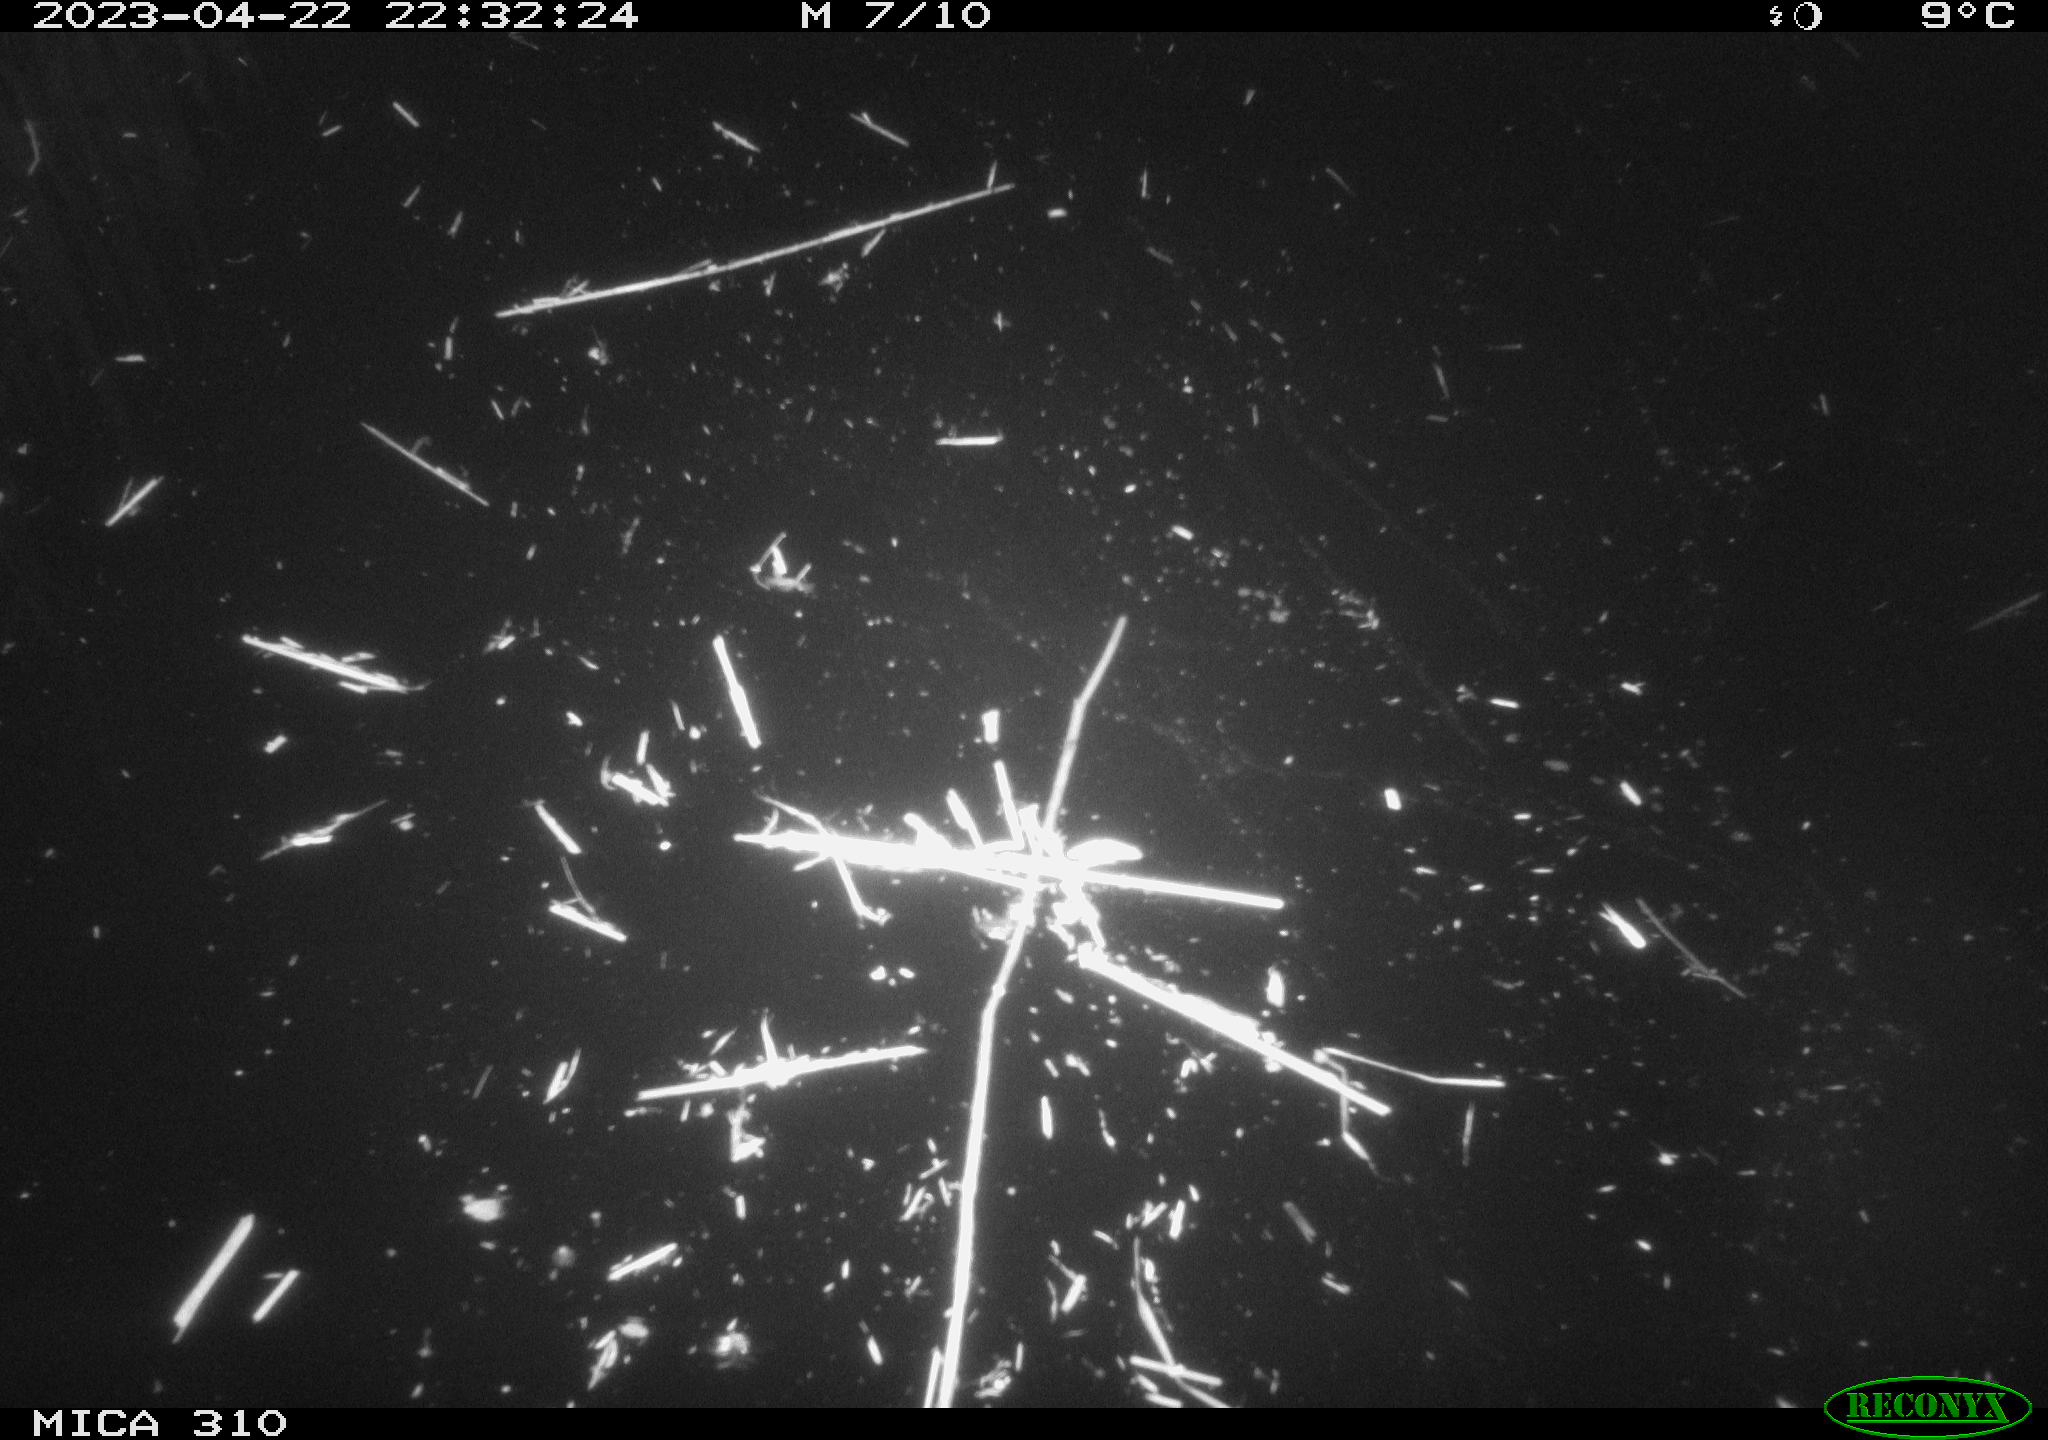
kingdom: Animalia
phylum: Chordata
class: Mammalia
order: Rodentia
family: Cricetidae
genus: Ondatra
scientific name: Ondatra zibethicus
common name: Muskrat
